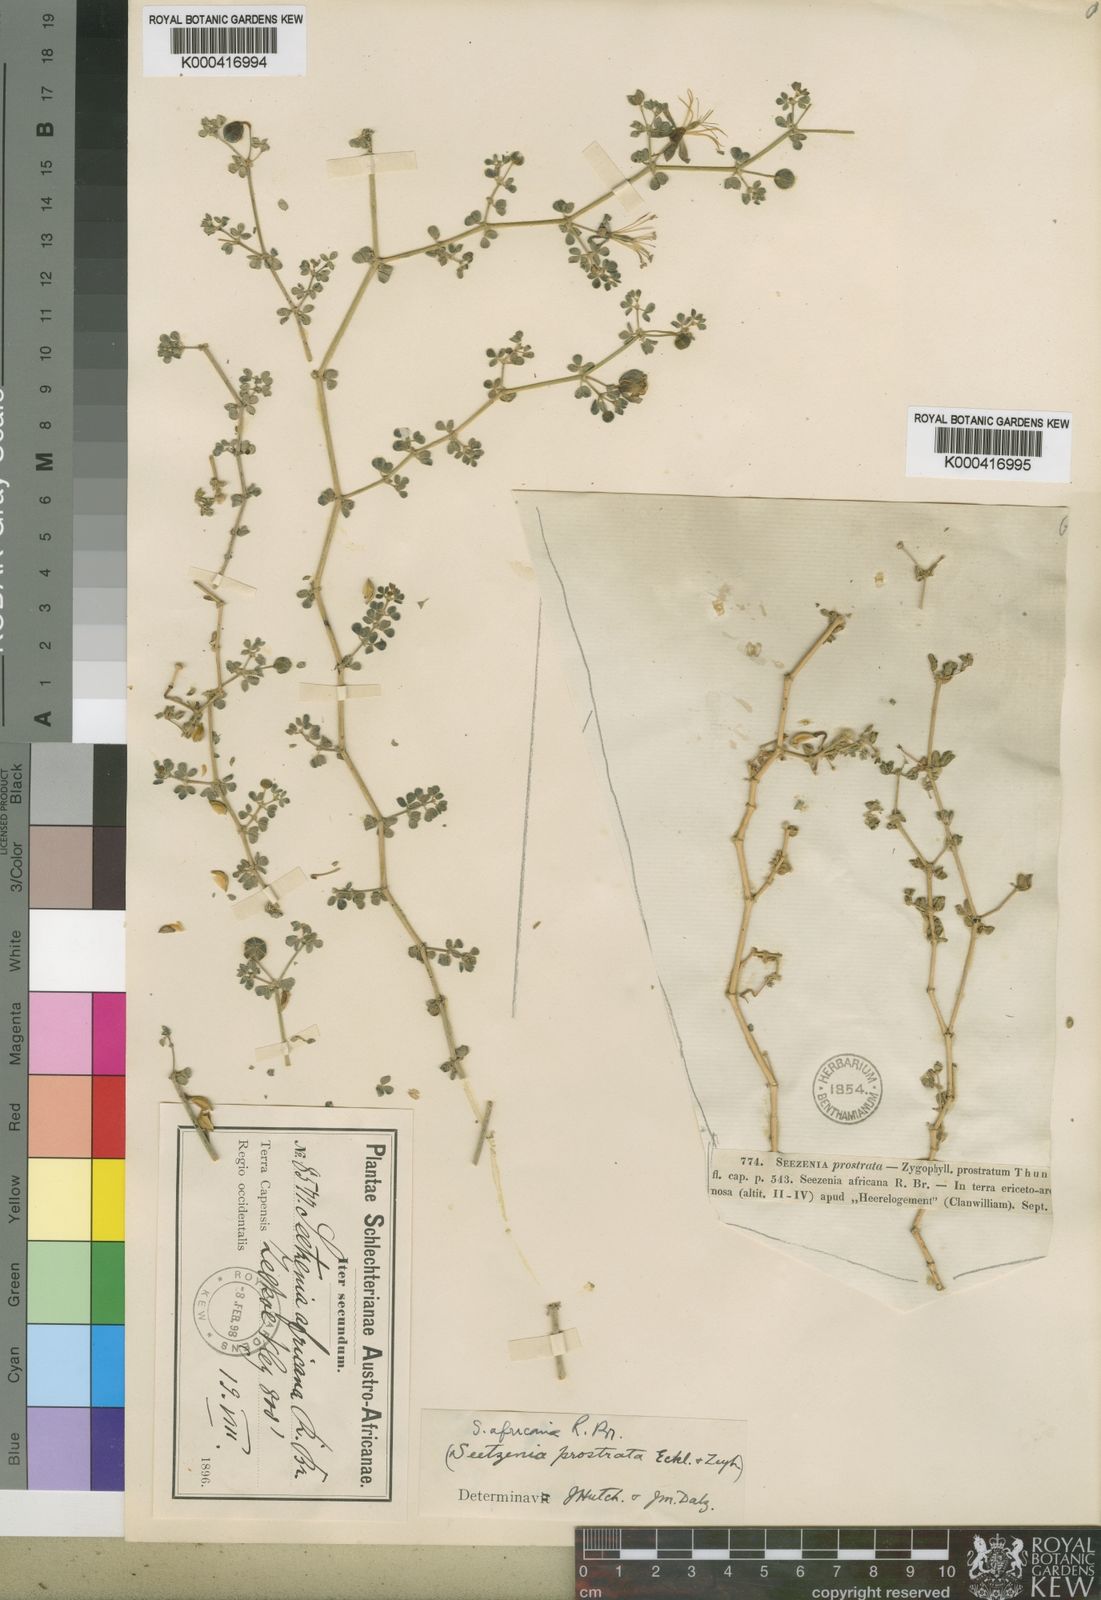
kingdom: Plantae
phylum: Tracheophyta
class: Magnoliopsida
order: Zygophyllales
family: Zygophyllaceae
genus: Seetzenia
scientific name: Seetzenia lanata
